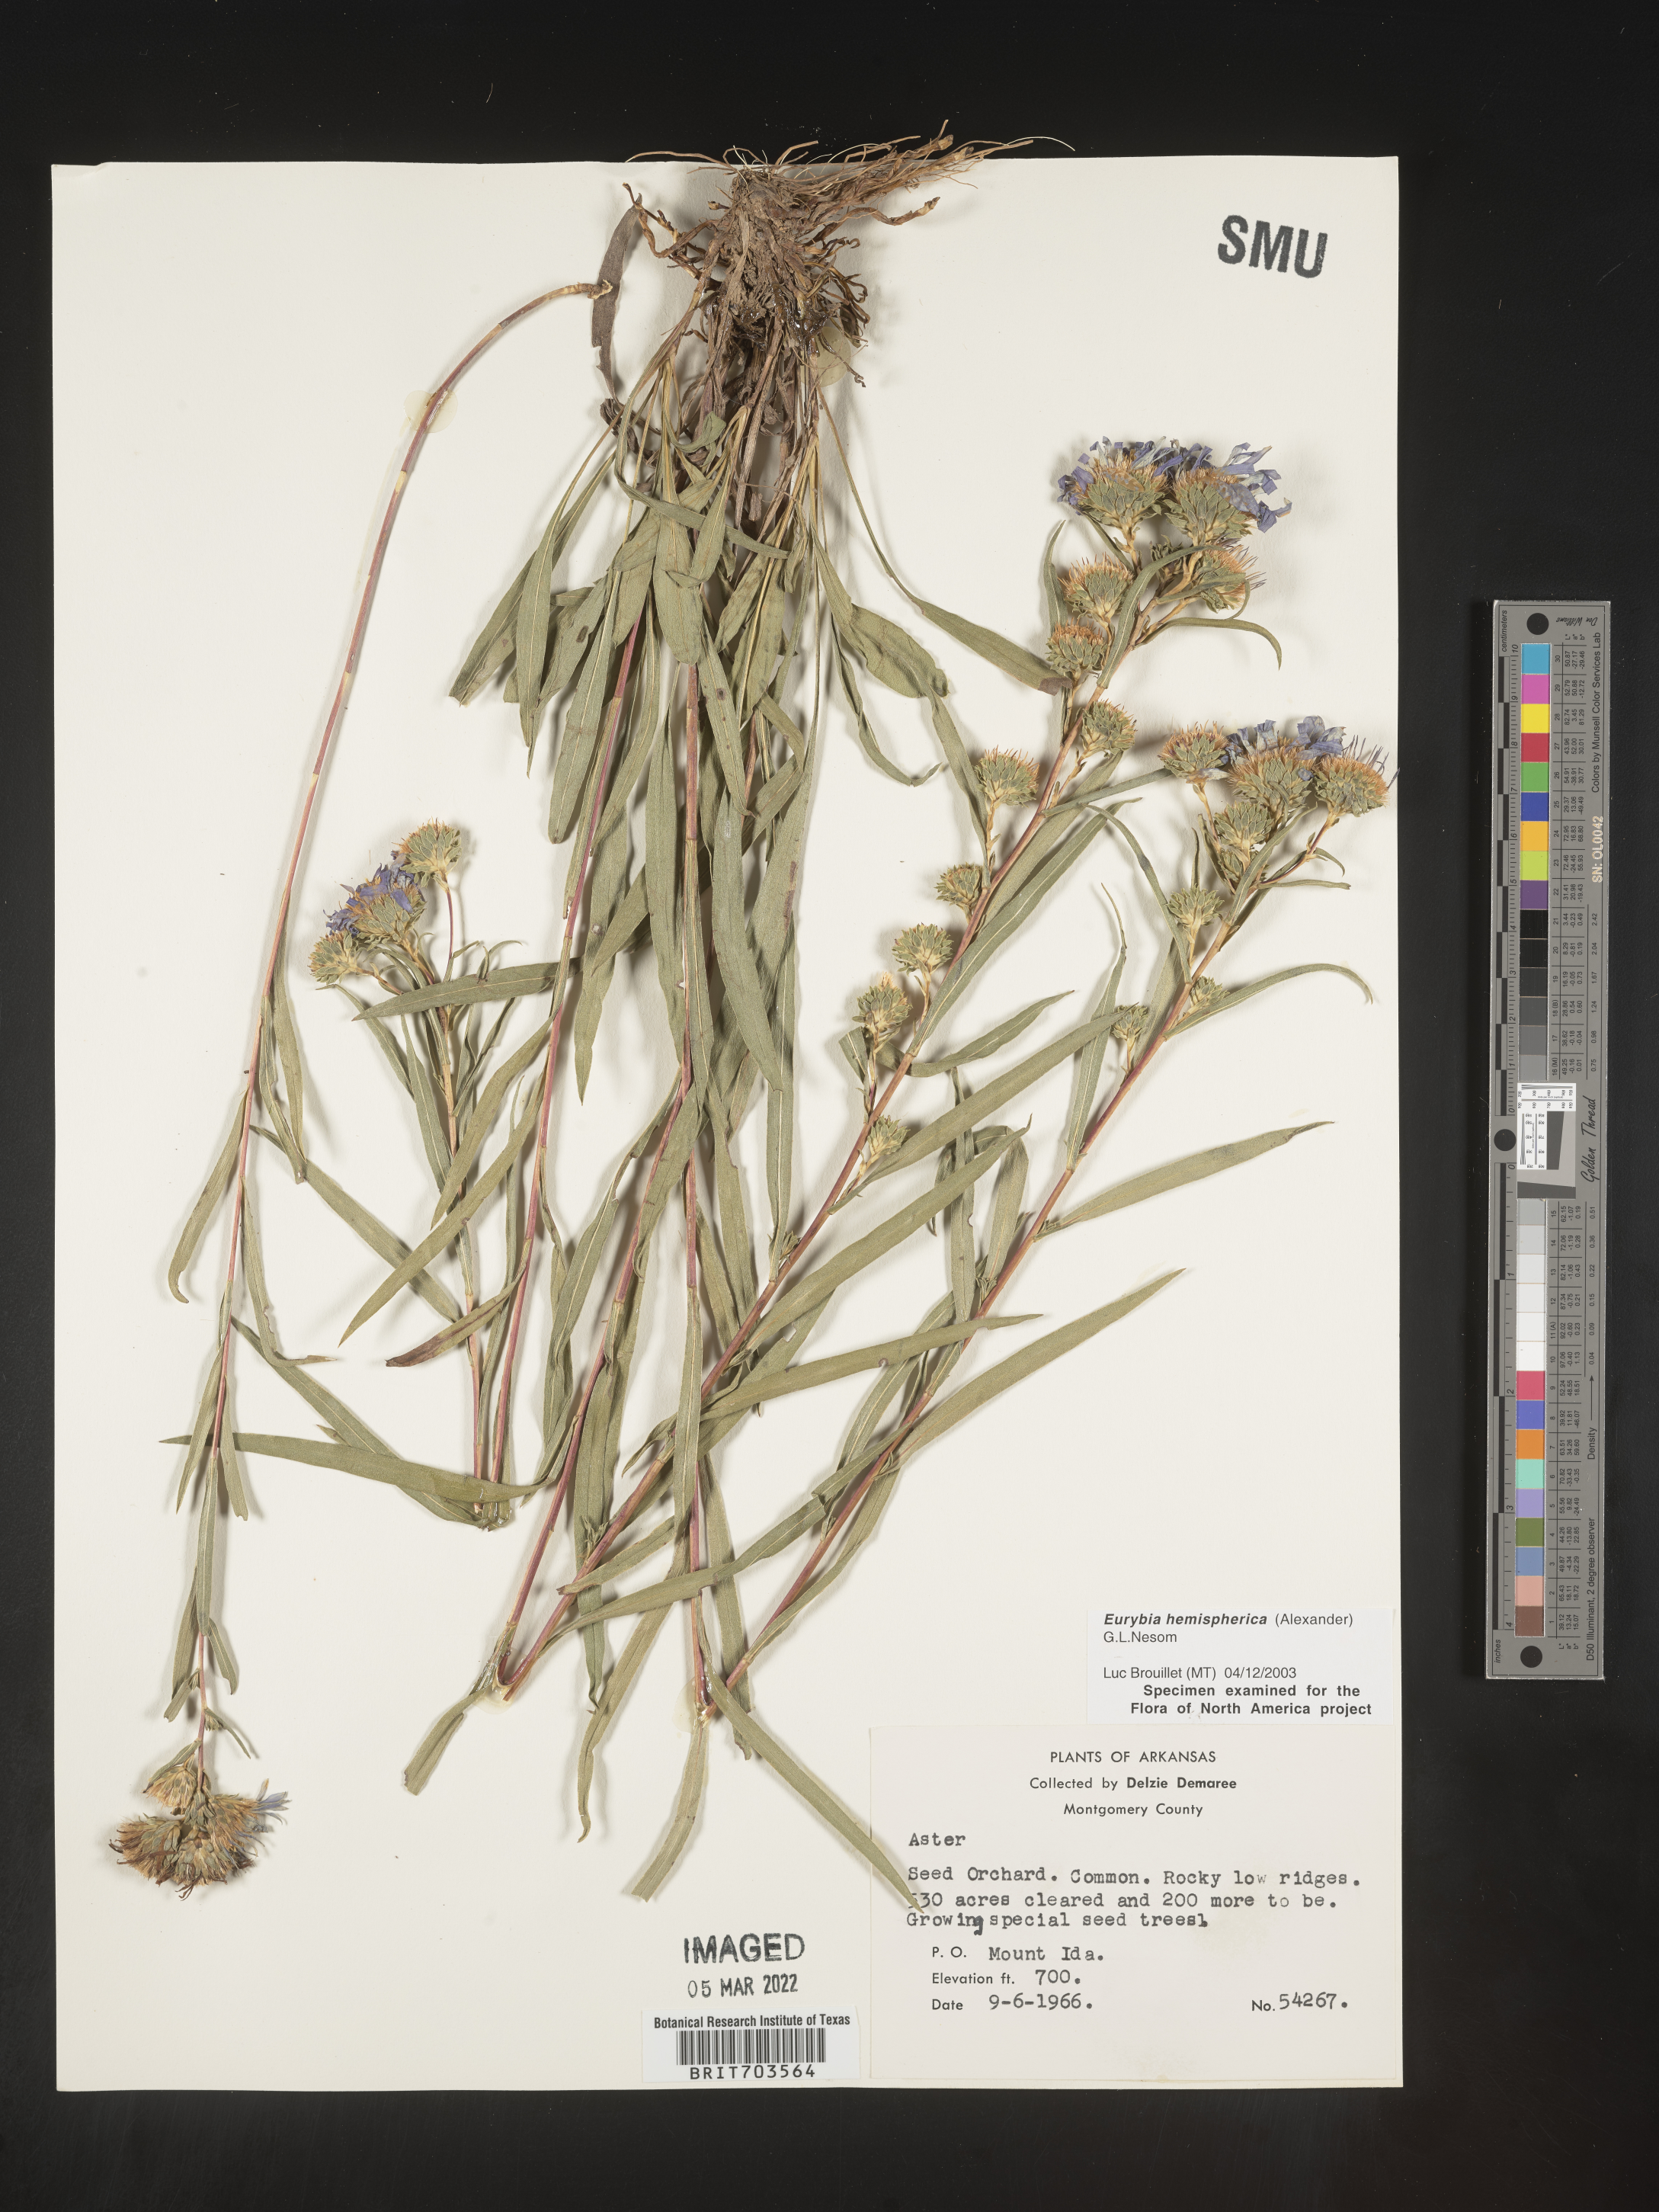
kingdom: Plantae
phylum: Tracheophyta
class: Magnoliopsida
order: Asterales
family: Asteraceae
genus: Eurybia
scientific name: Eurybia hemispherica
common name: Showy aster
